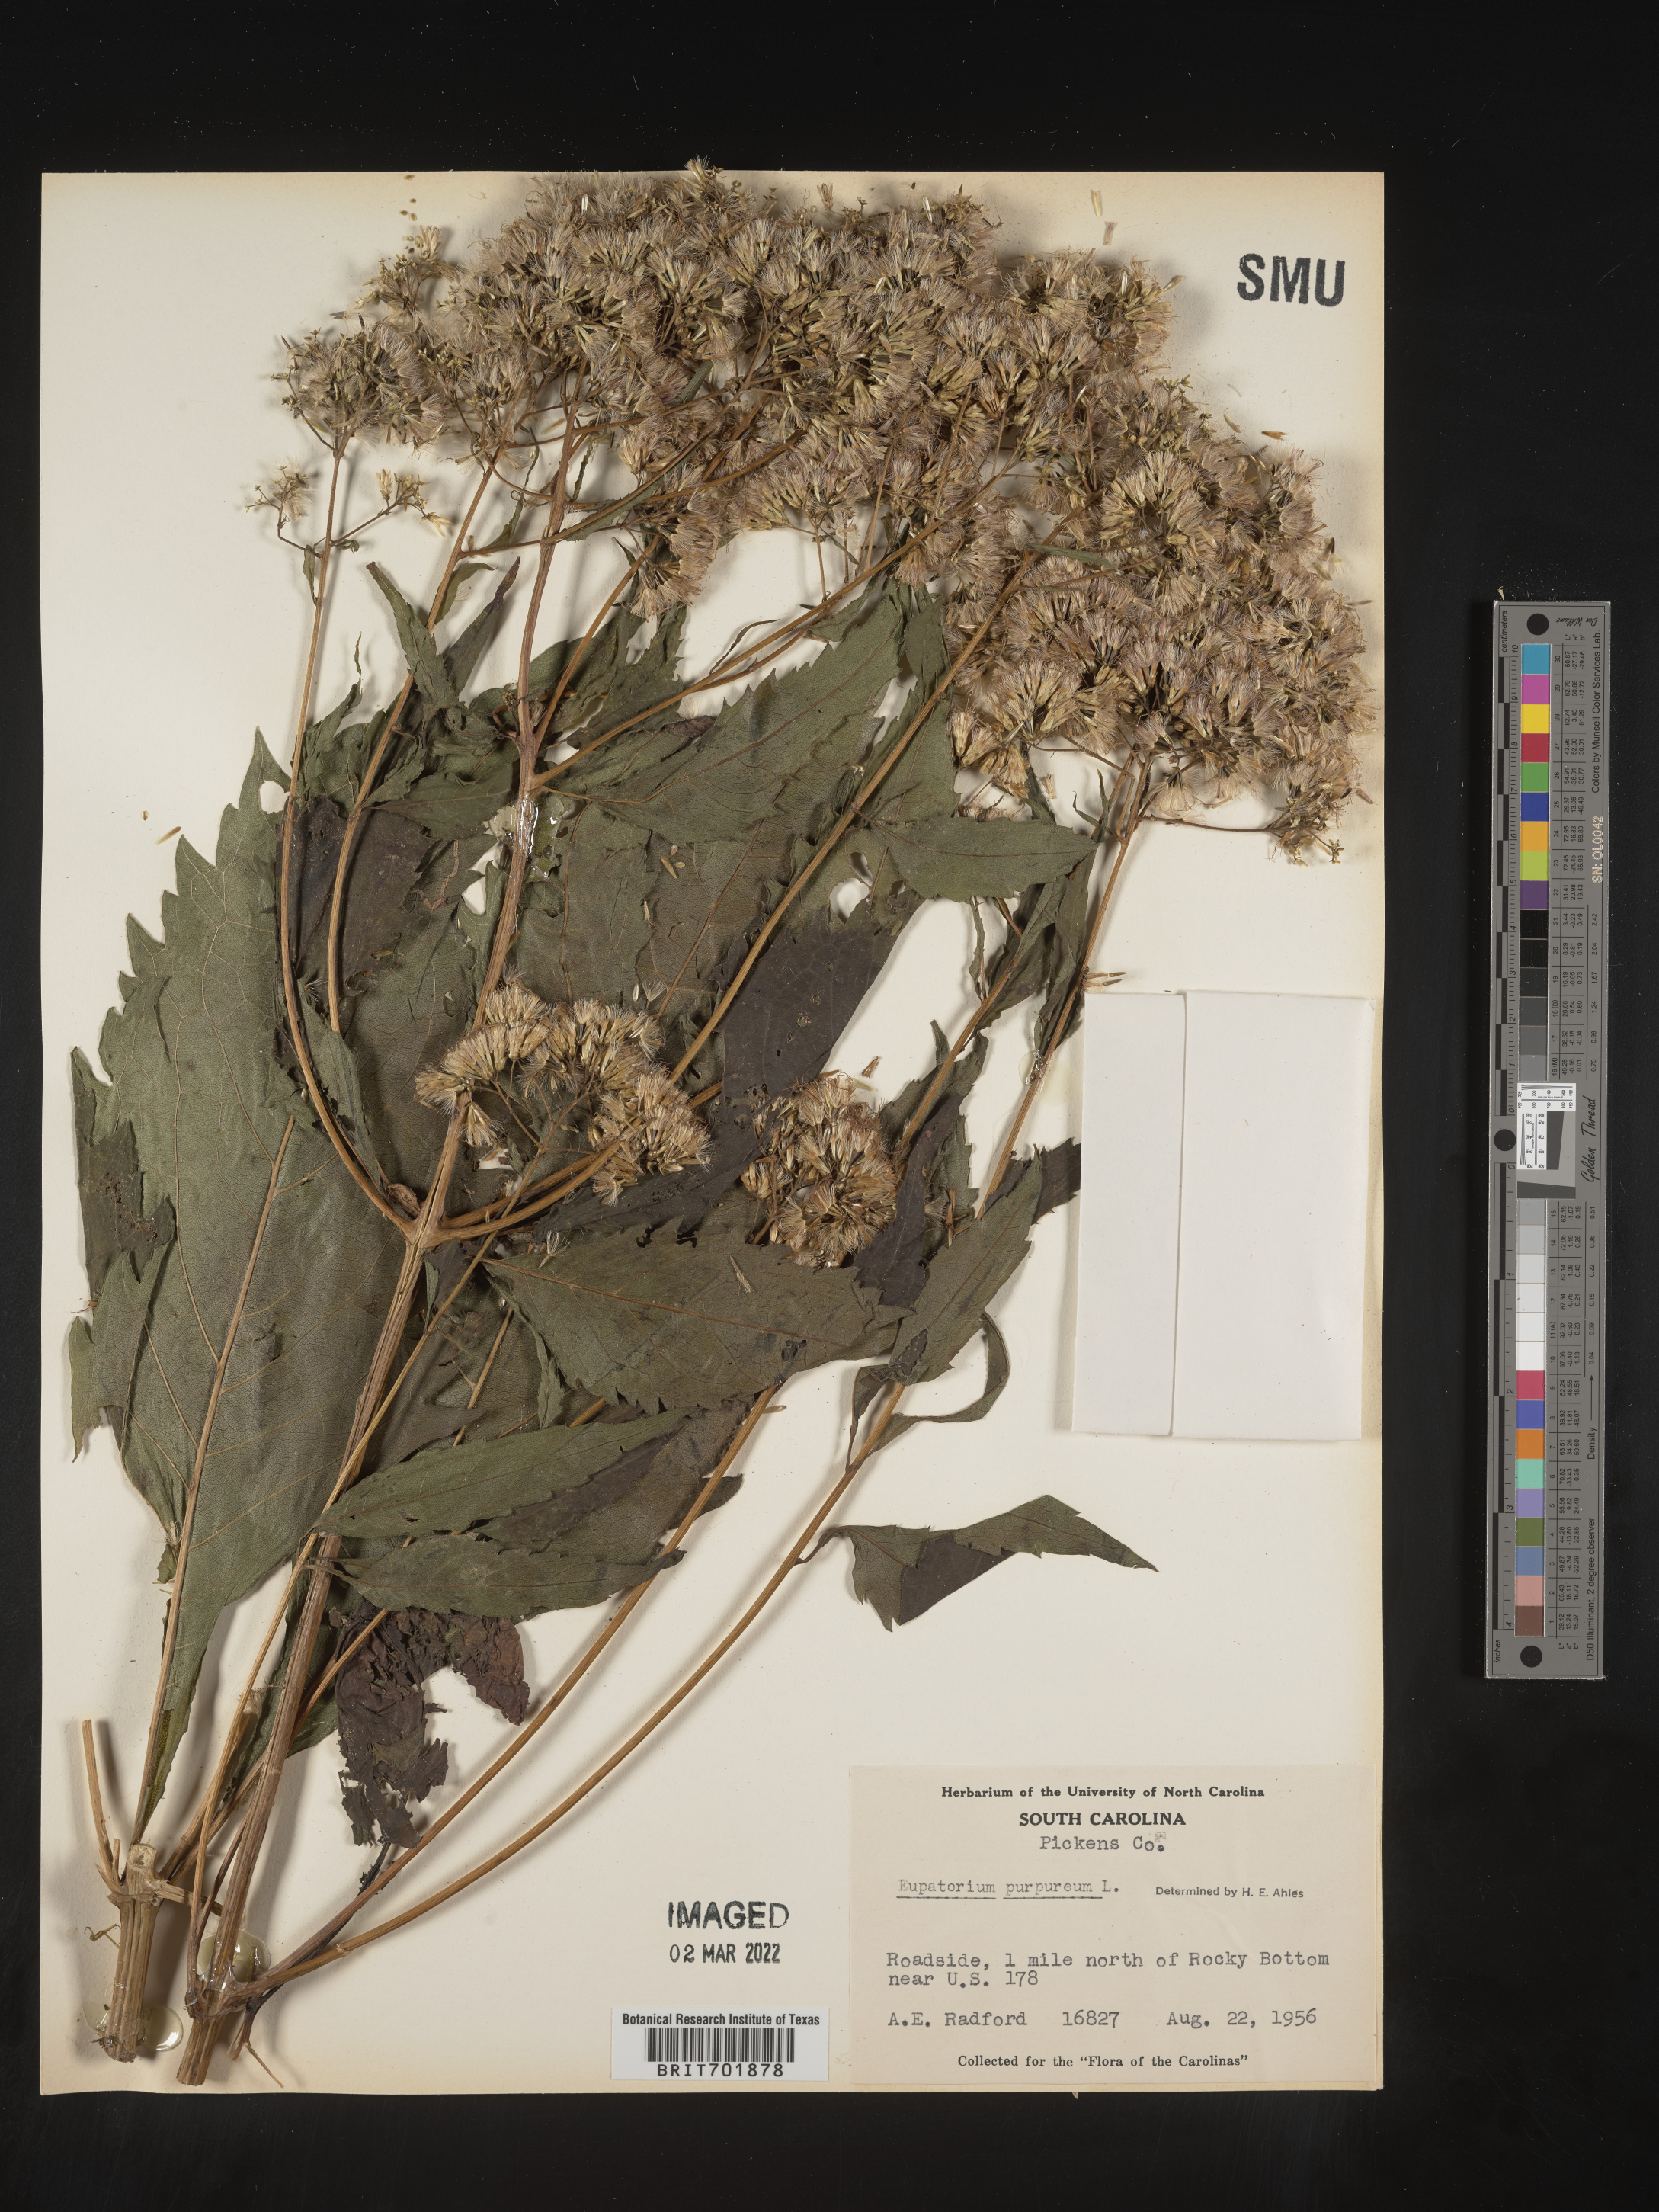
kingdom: Plantae
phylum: Tracheophyta
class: Magnoliopsida
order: Asterales
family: Asteraceae
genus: Eupatorium
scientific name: Eupatorium quaternum
